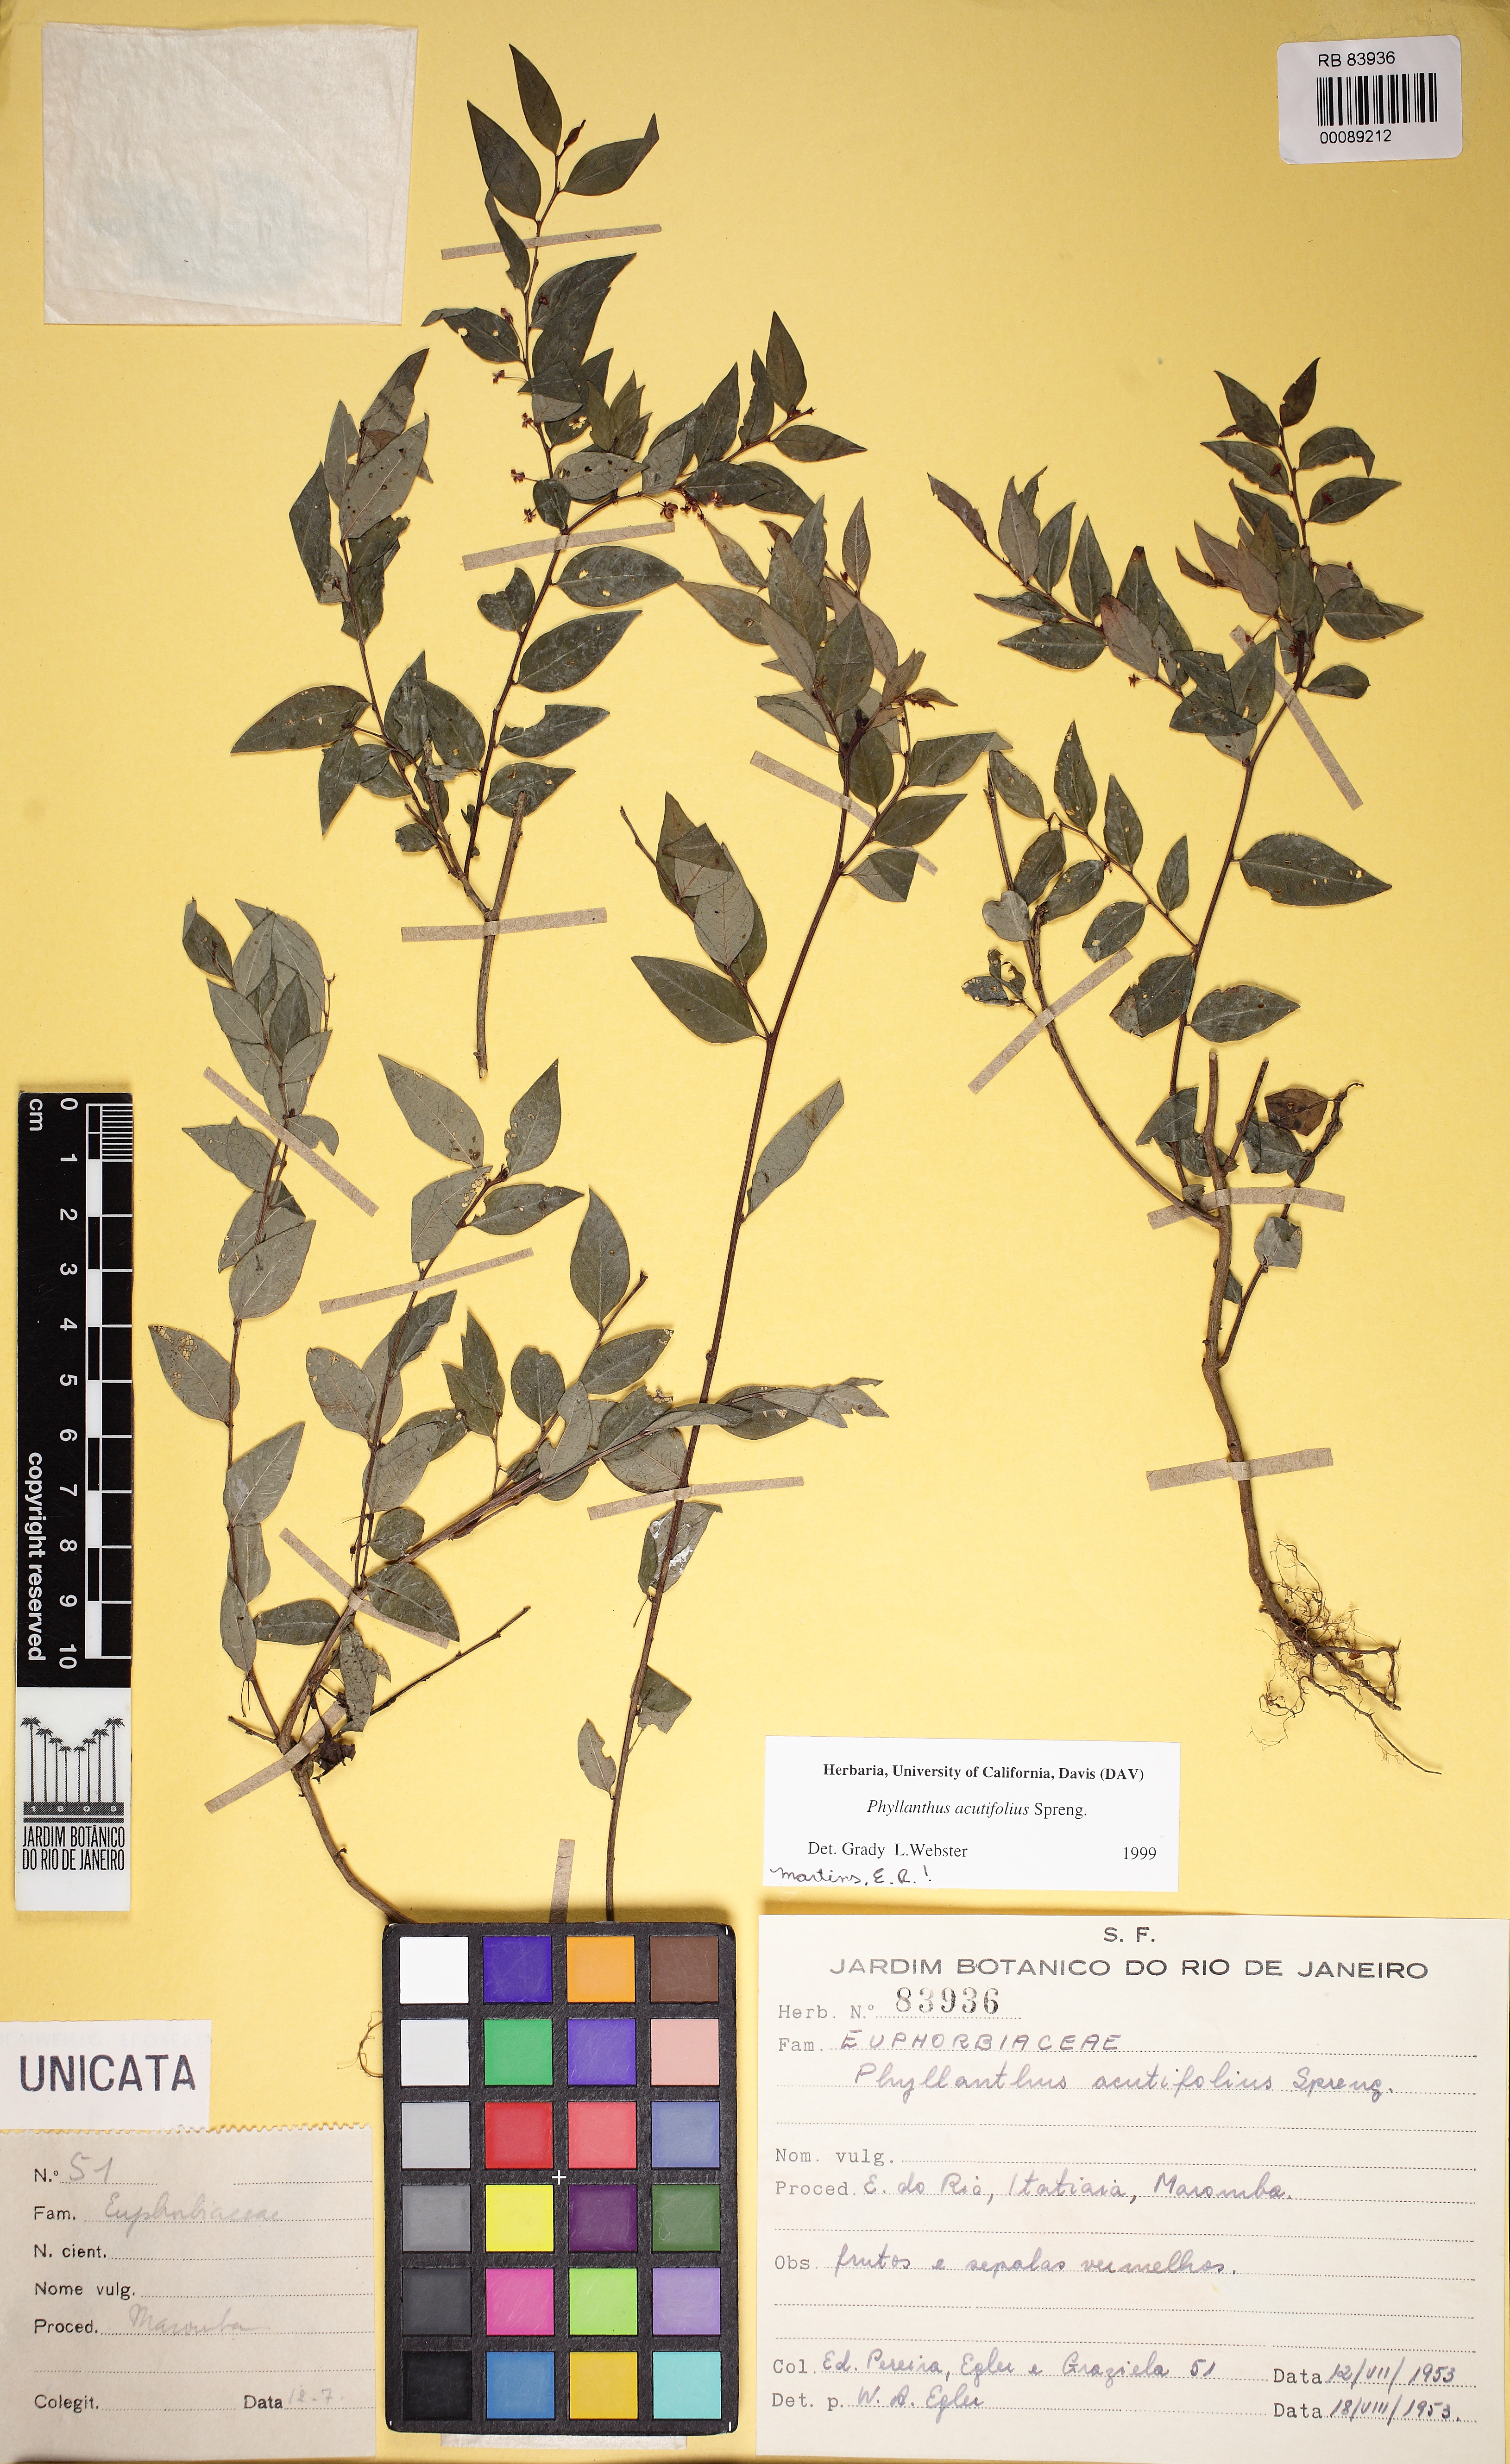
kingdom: Plantae
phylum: Tracheophyta
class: Magnoliopsida
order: Malpighiales
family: Phyllanthaceae
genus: Phyllanthus
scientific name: Phyllanthus acutifolius
